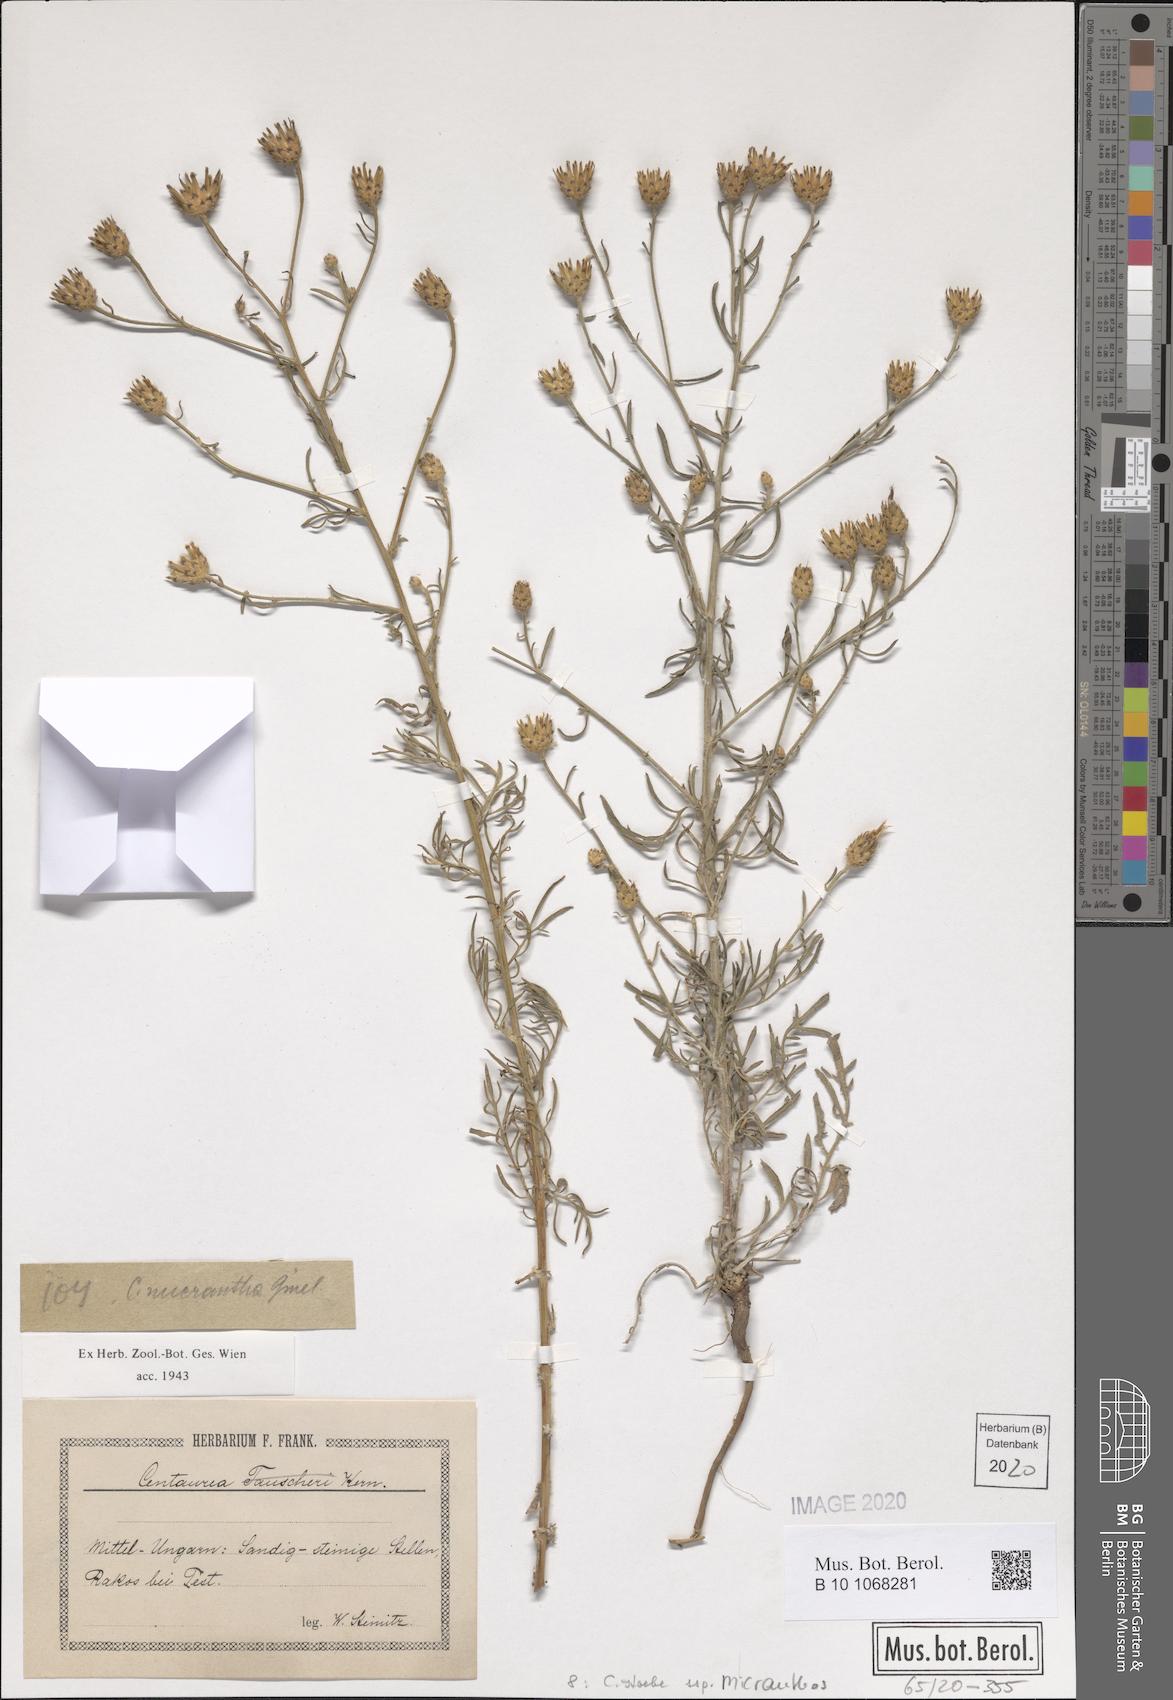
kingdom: Plantae
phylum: Tracheophyta
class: Magnoliopsida
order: Asterales
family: Asteraceae
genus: Centaurea
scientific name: Centaurea australis
